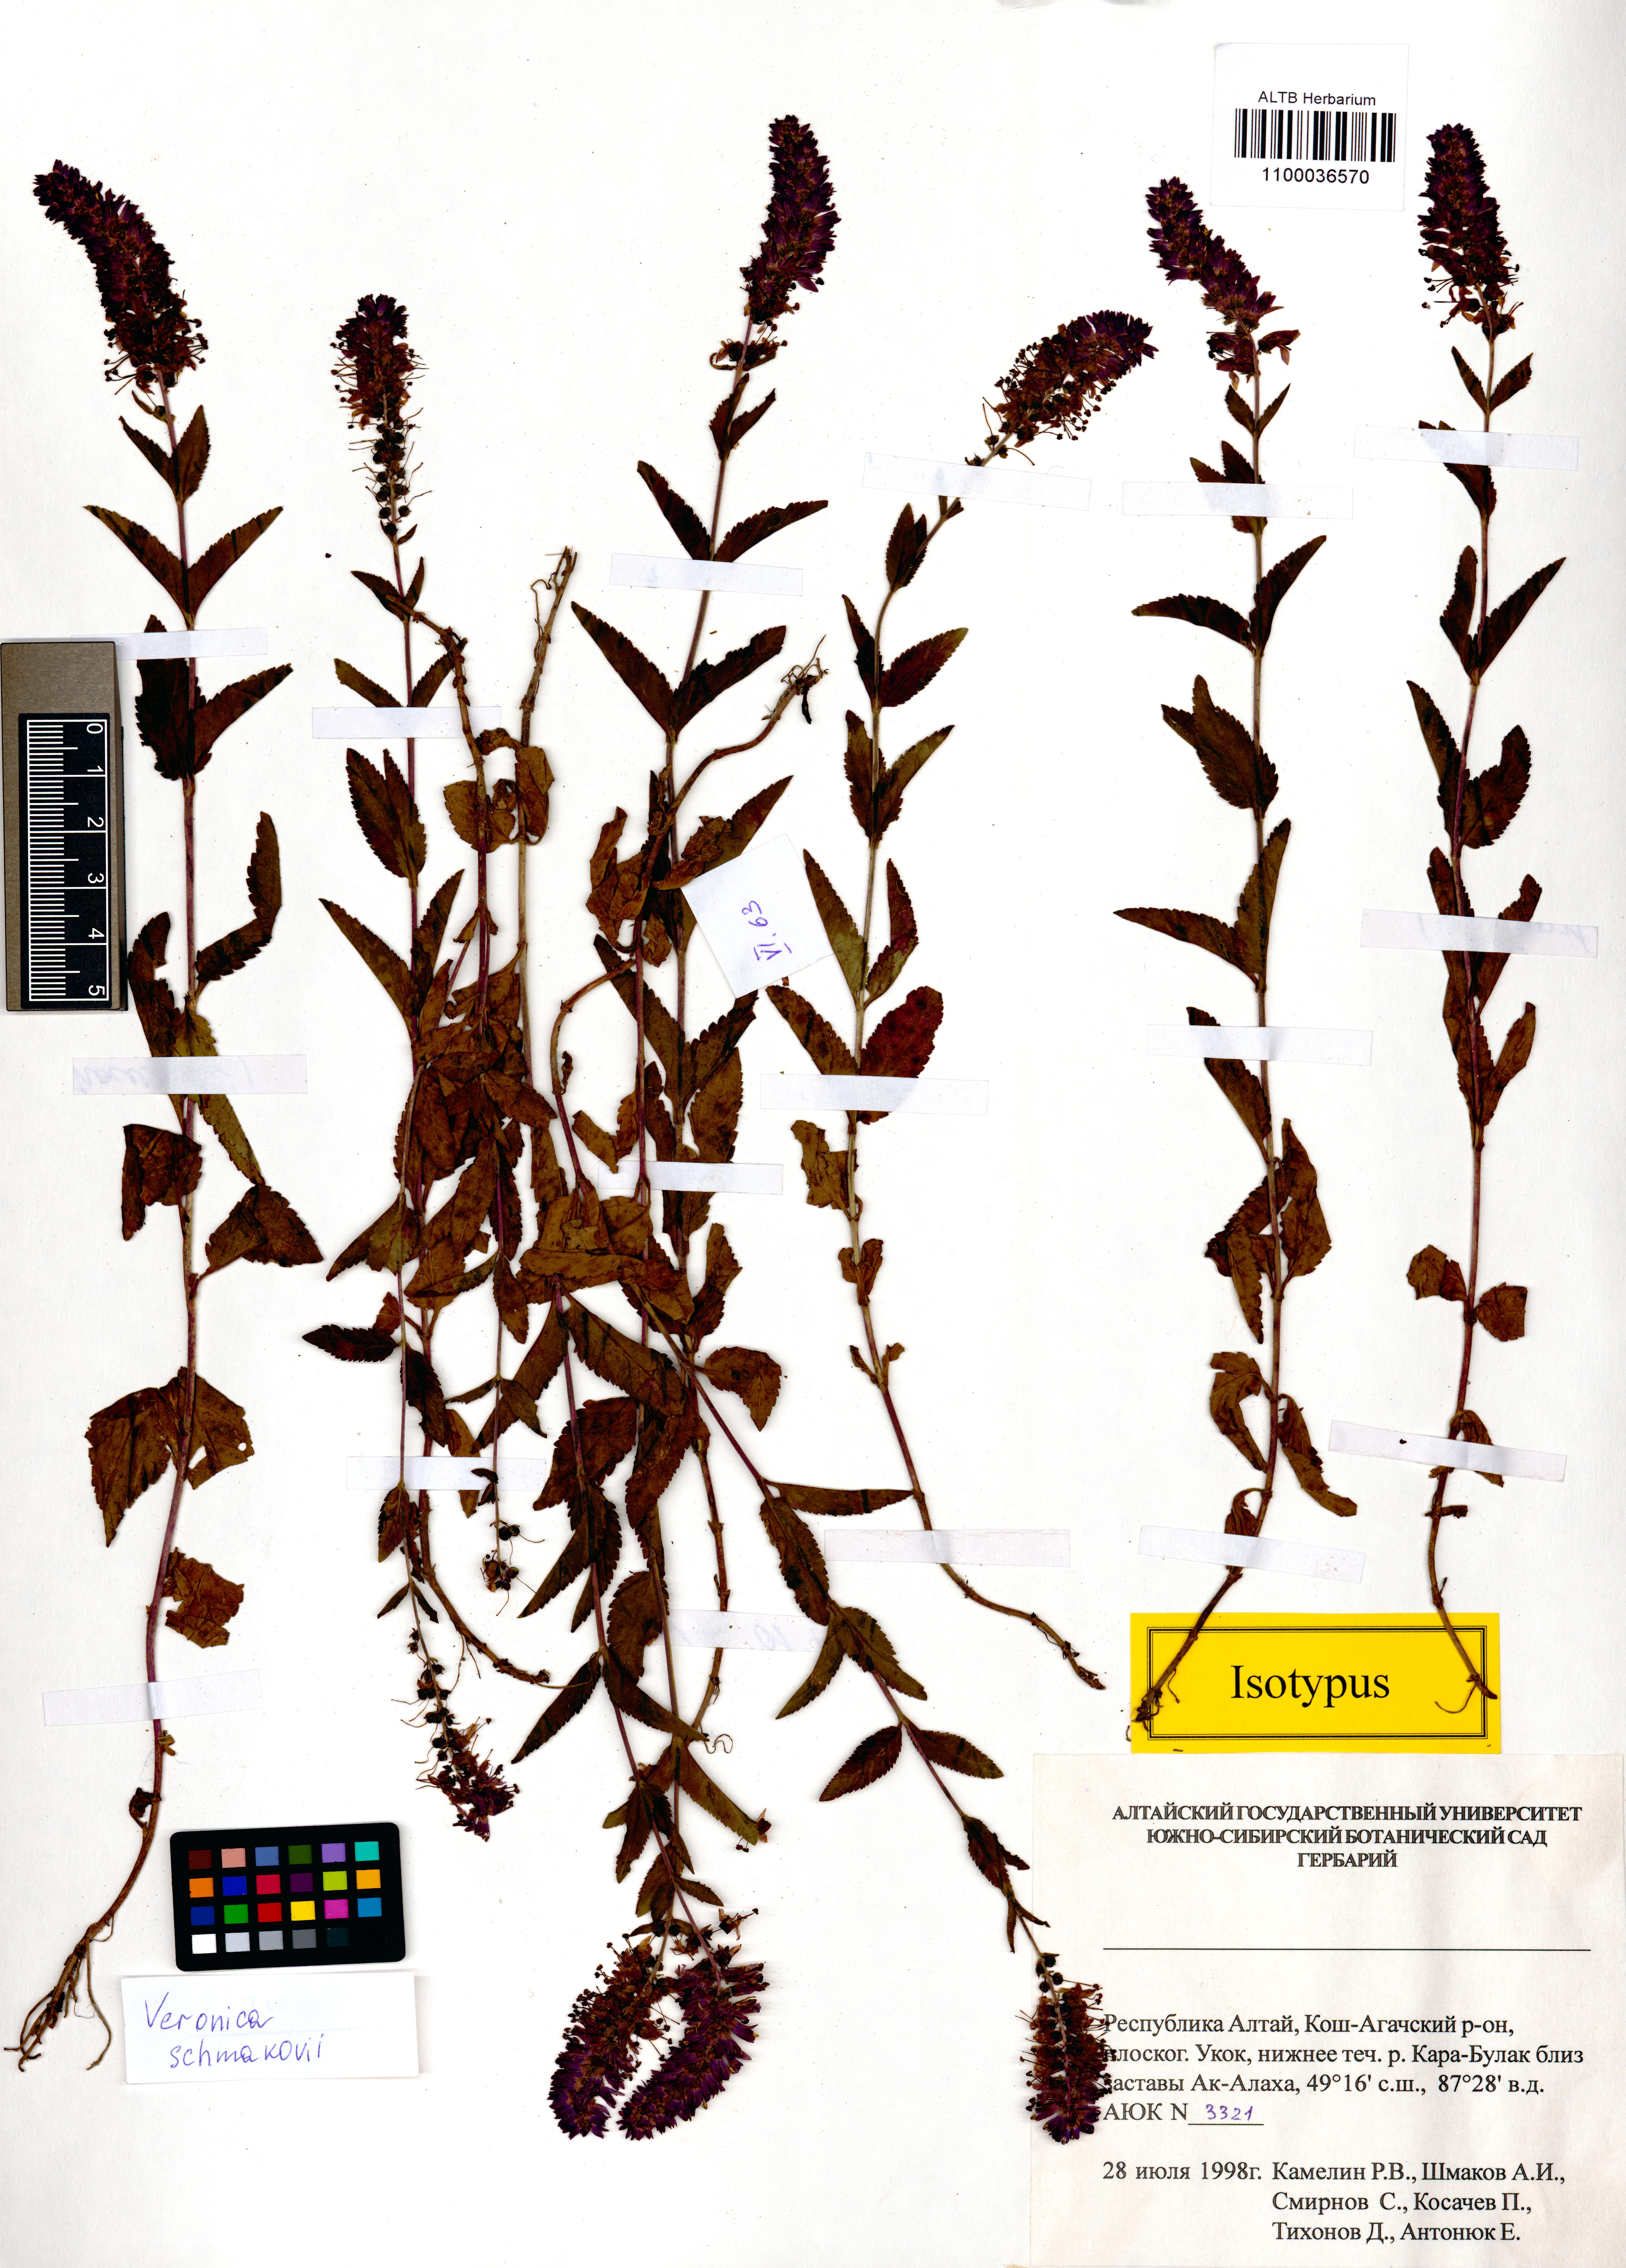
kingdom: Plantae
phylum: Tracheophyta
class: Magnoliopsida
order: Lamiales
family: Plantaginaceae
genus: Veronica
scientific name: Veronica schmakovii
